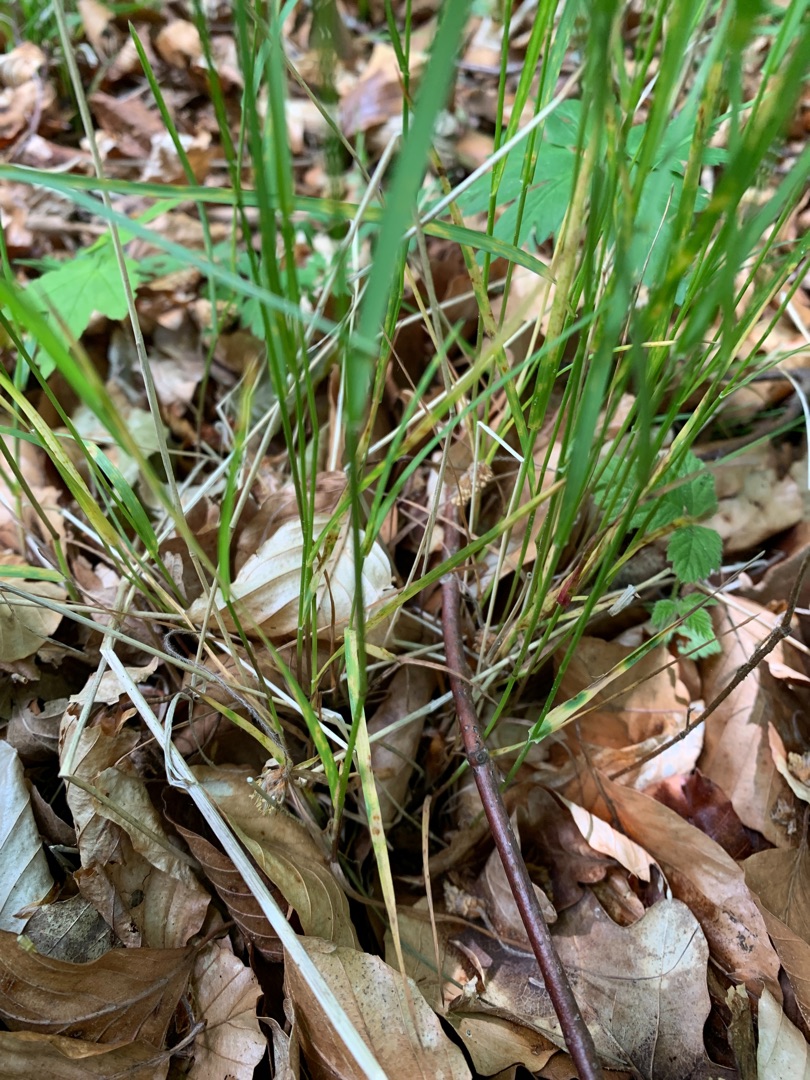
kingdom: Plantae
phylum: Tracheophyta
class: Liliopsida
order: Poales
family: Poaceae
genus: Poa
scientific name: Poa nemoralis
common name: Lund-rapgræs
